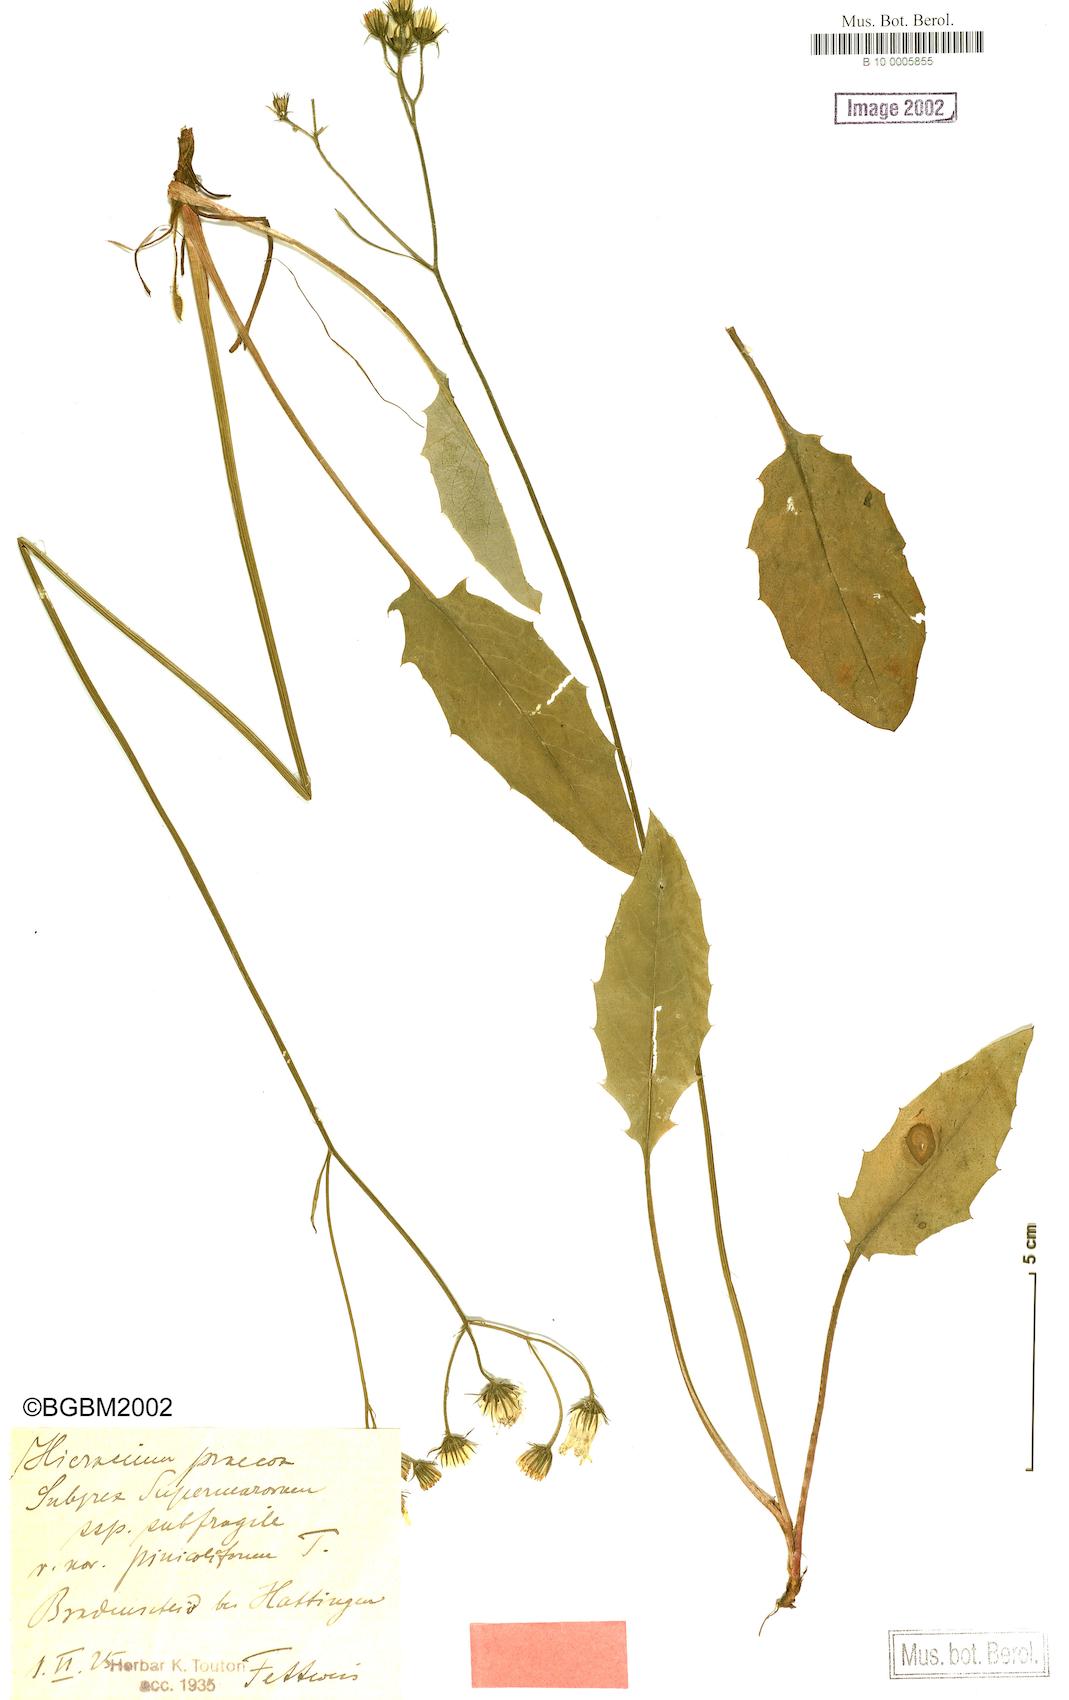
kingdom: Plantae
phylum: Tracheophyta
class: Magnoliopsida
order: Asterales
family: Asteraceae
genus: Hieracium
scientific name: Hieracium praecox
